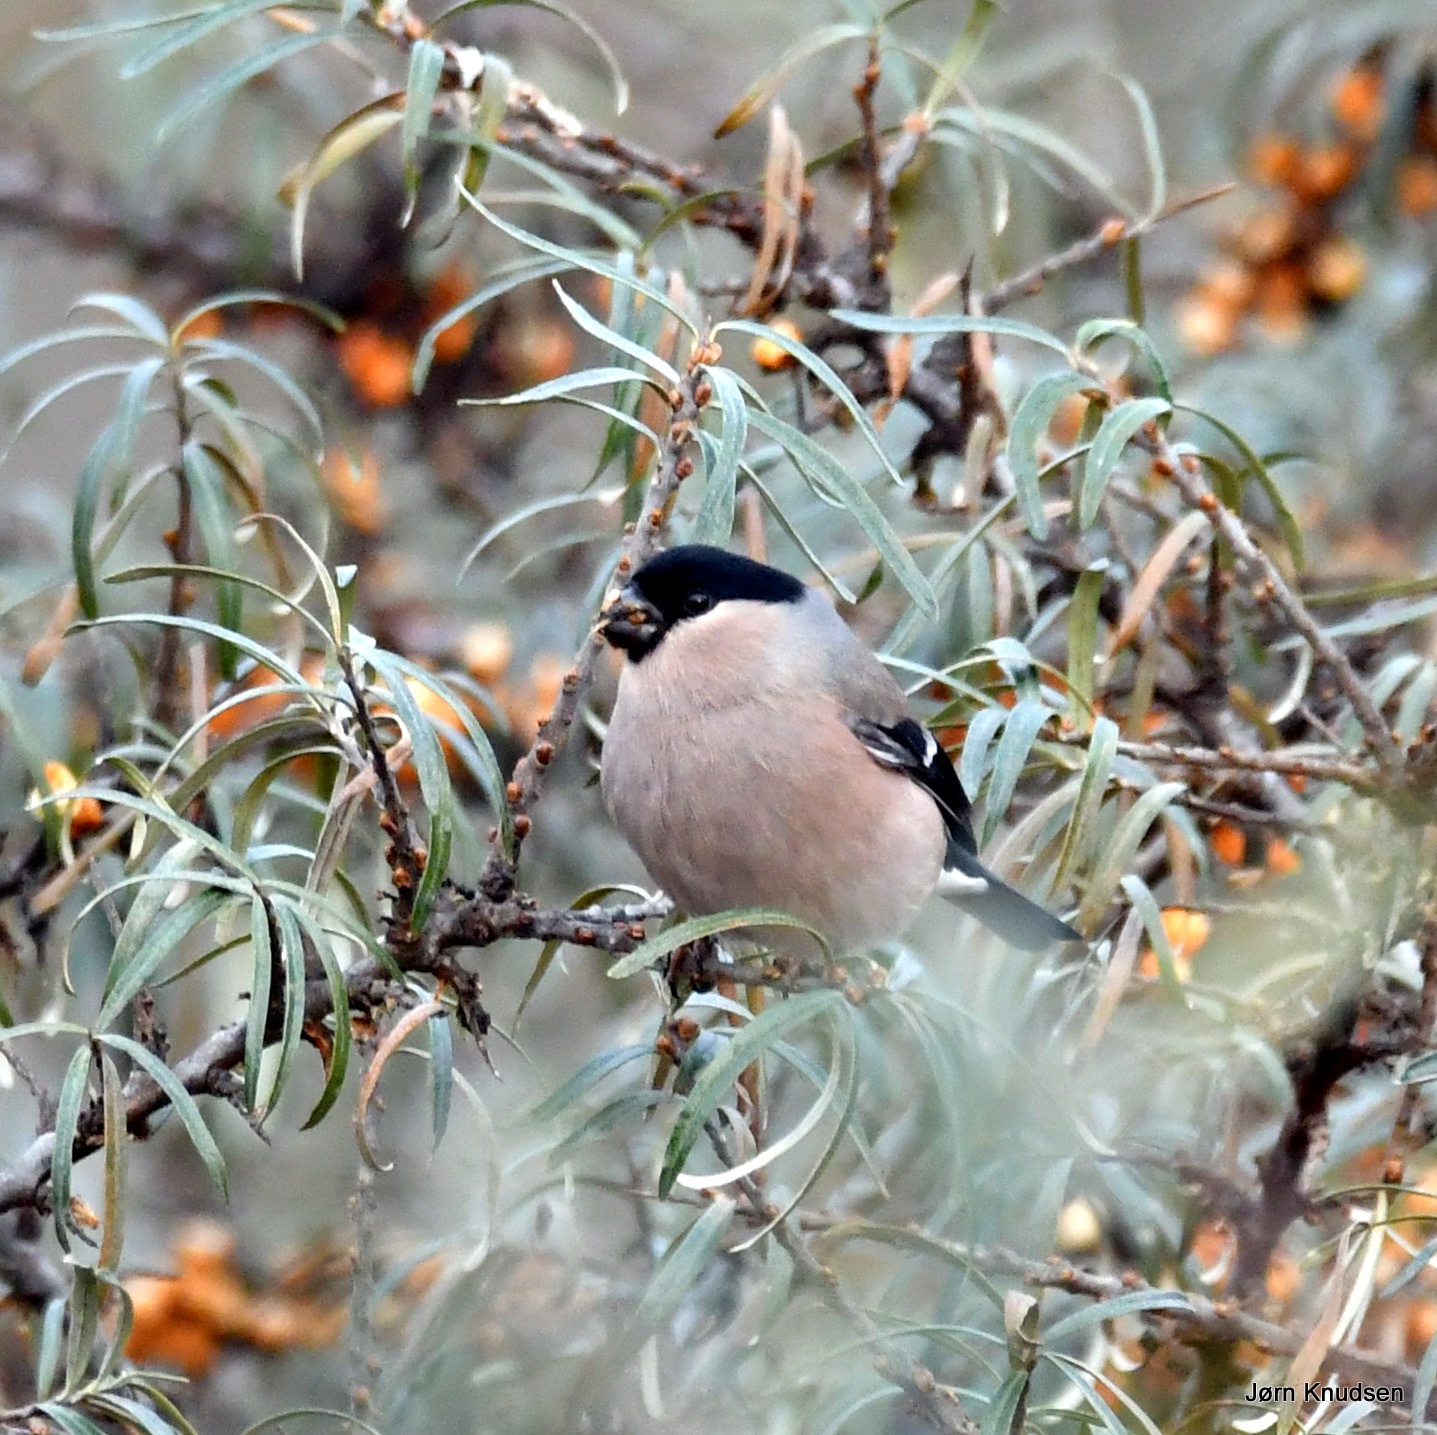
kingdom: Animalia
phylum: Chordata
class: Aves
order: Passeriformes
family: Fringillidae
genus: Pyrrhula
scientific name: Pyrrhula pyrrhula
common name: Dompap
